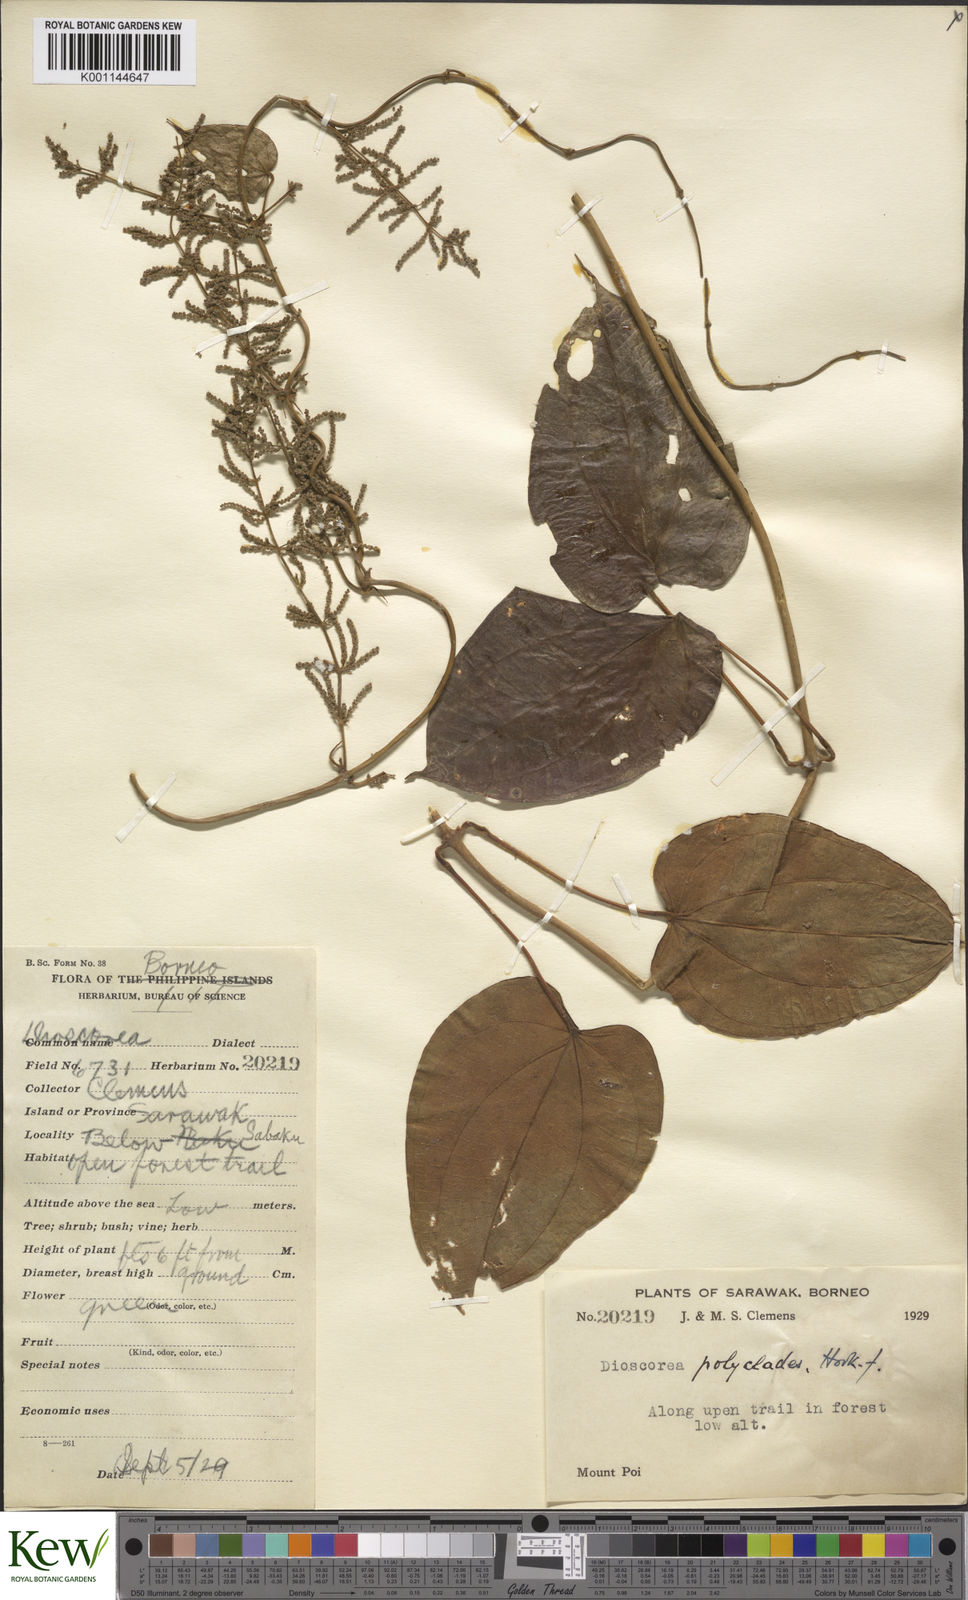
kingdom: Plantae
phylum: Tracheophyta
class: Liliopsida
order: Dioscoreales
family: Dioscoreaceae
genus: Dioscorea
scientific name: Dioscorea polyclados
